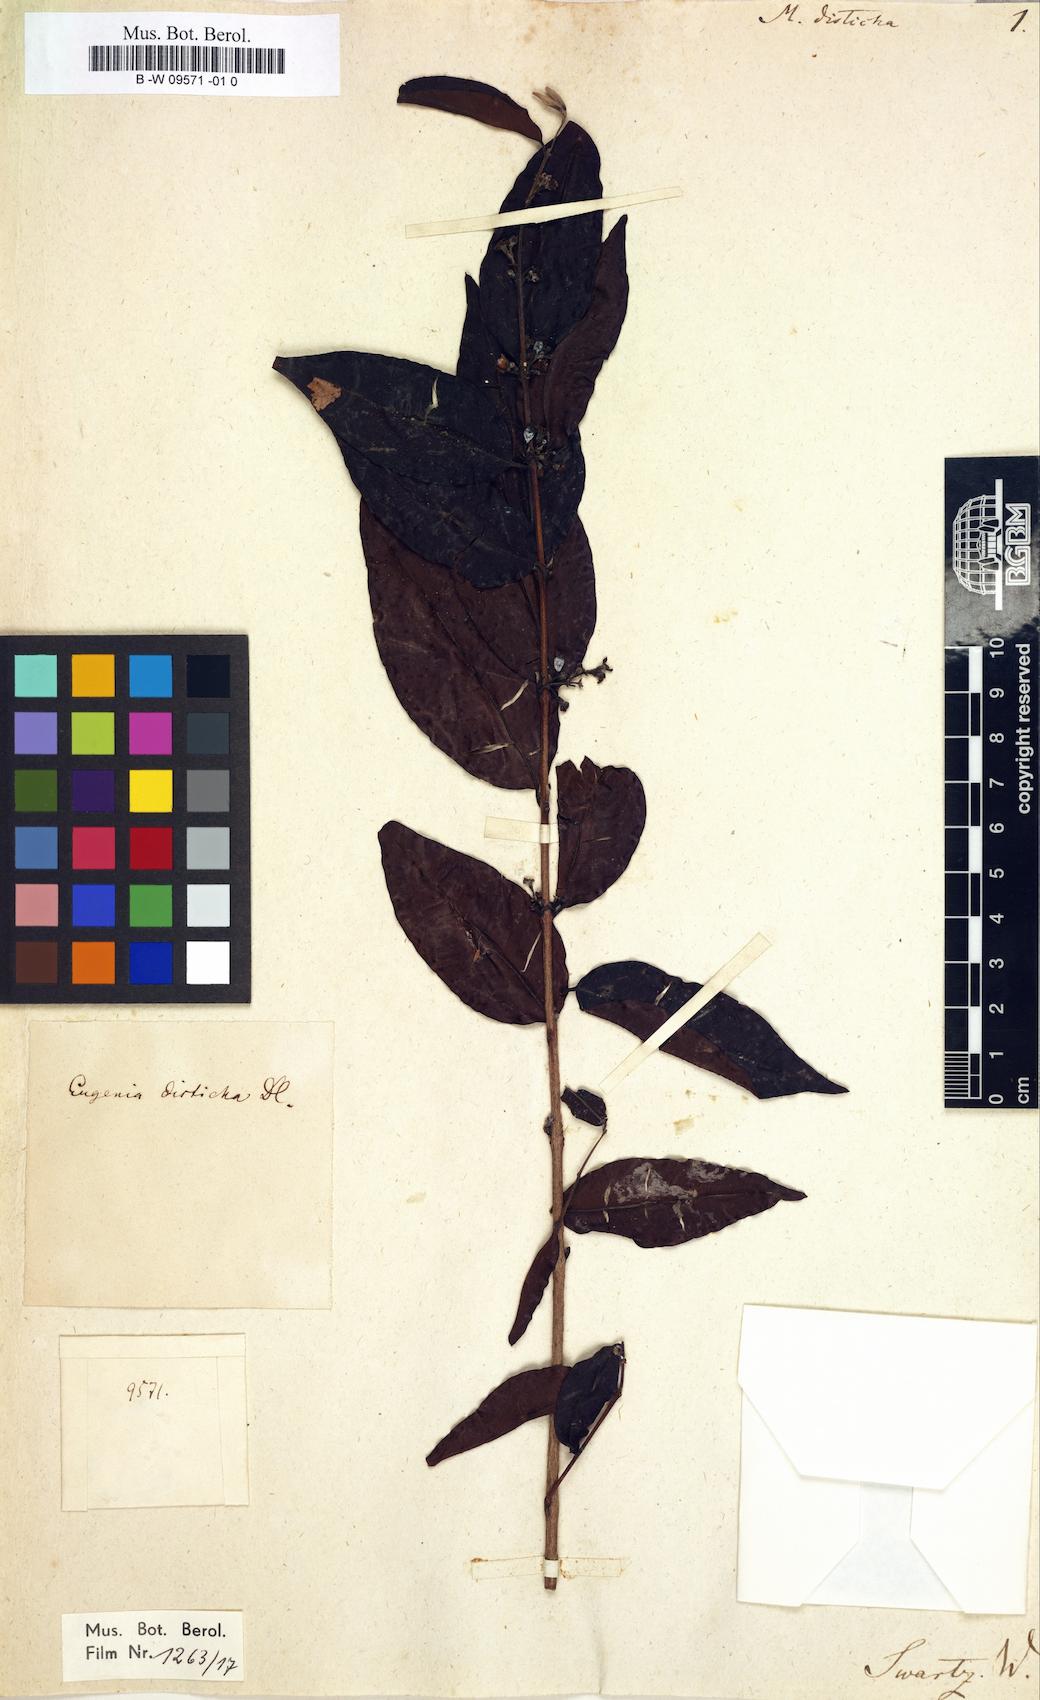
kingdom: Plantae
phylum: Tracheophyta
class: Magnoliopsida
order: Myrtales
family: Myrtaceae
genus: Eugenia
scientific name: Eugenia disticha
